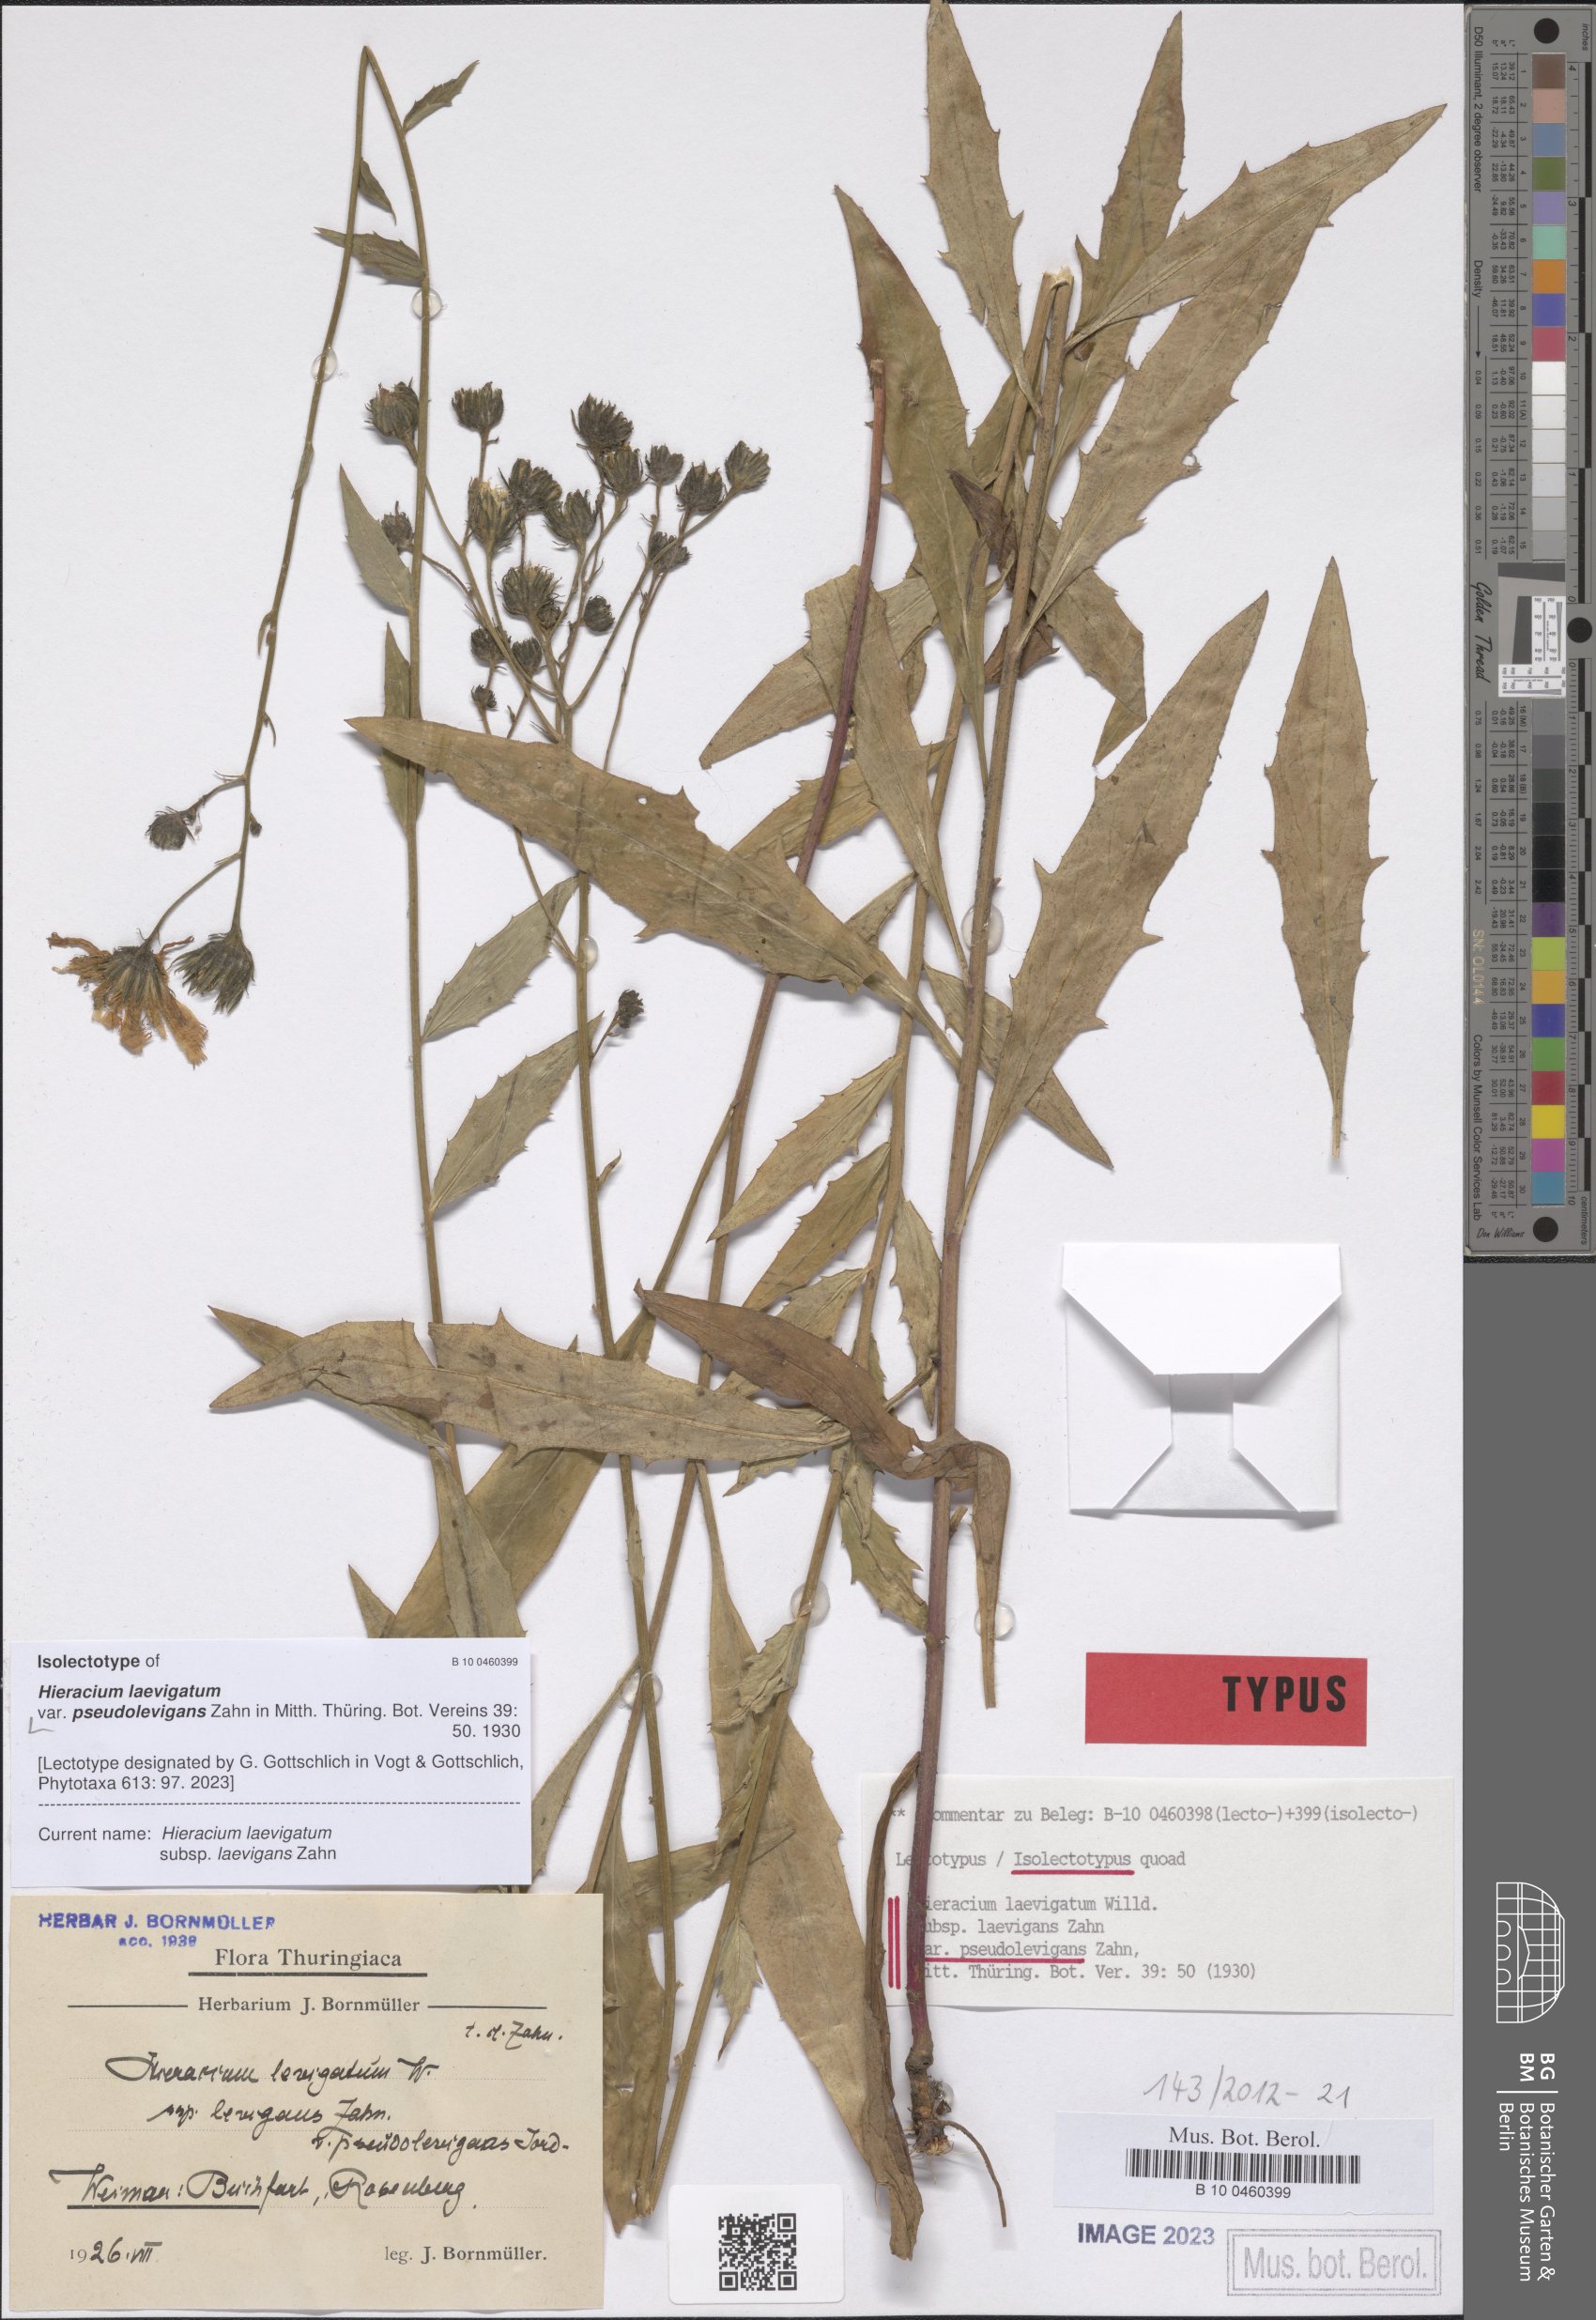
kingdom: Plantae
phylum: Tracheophyta
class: Magnoliopsida
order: Asterales
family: Asteraceae
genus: Hieracium
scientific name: Hieracium laevigatum
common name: Smooth hawkweed
